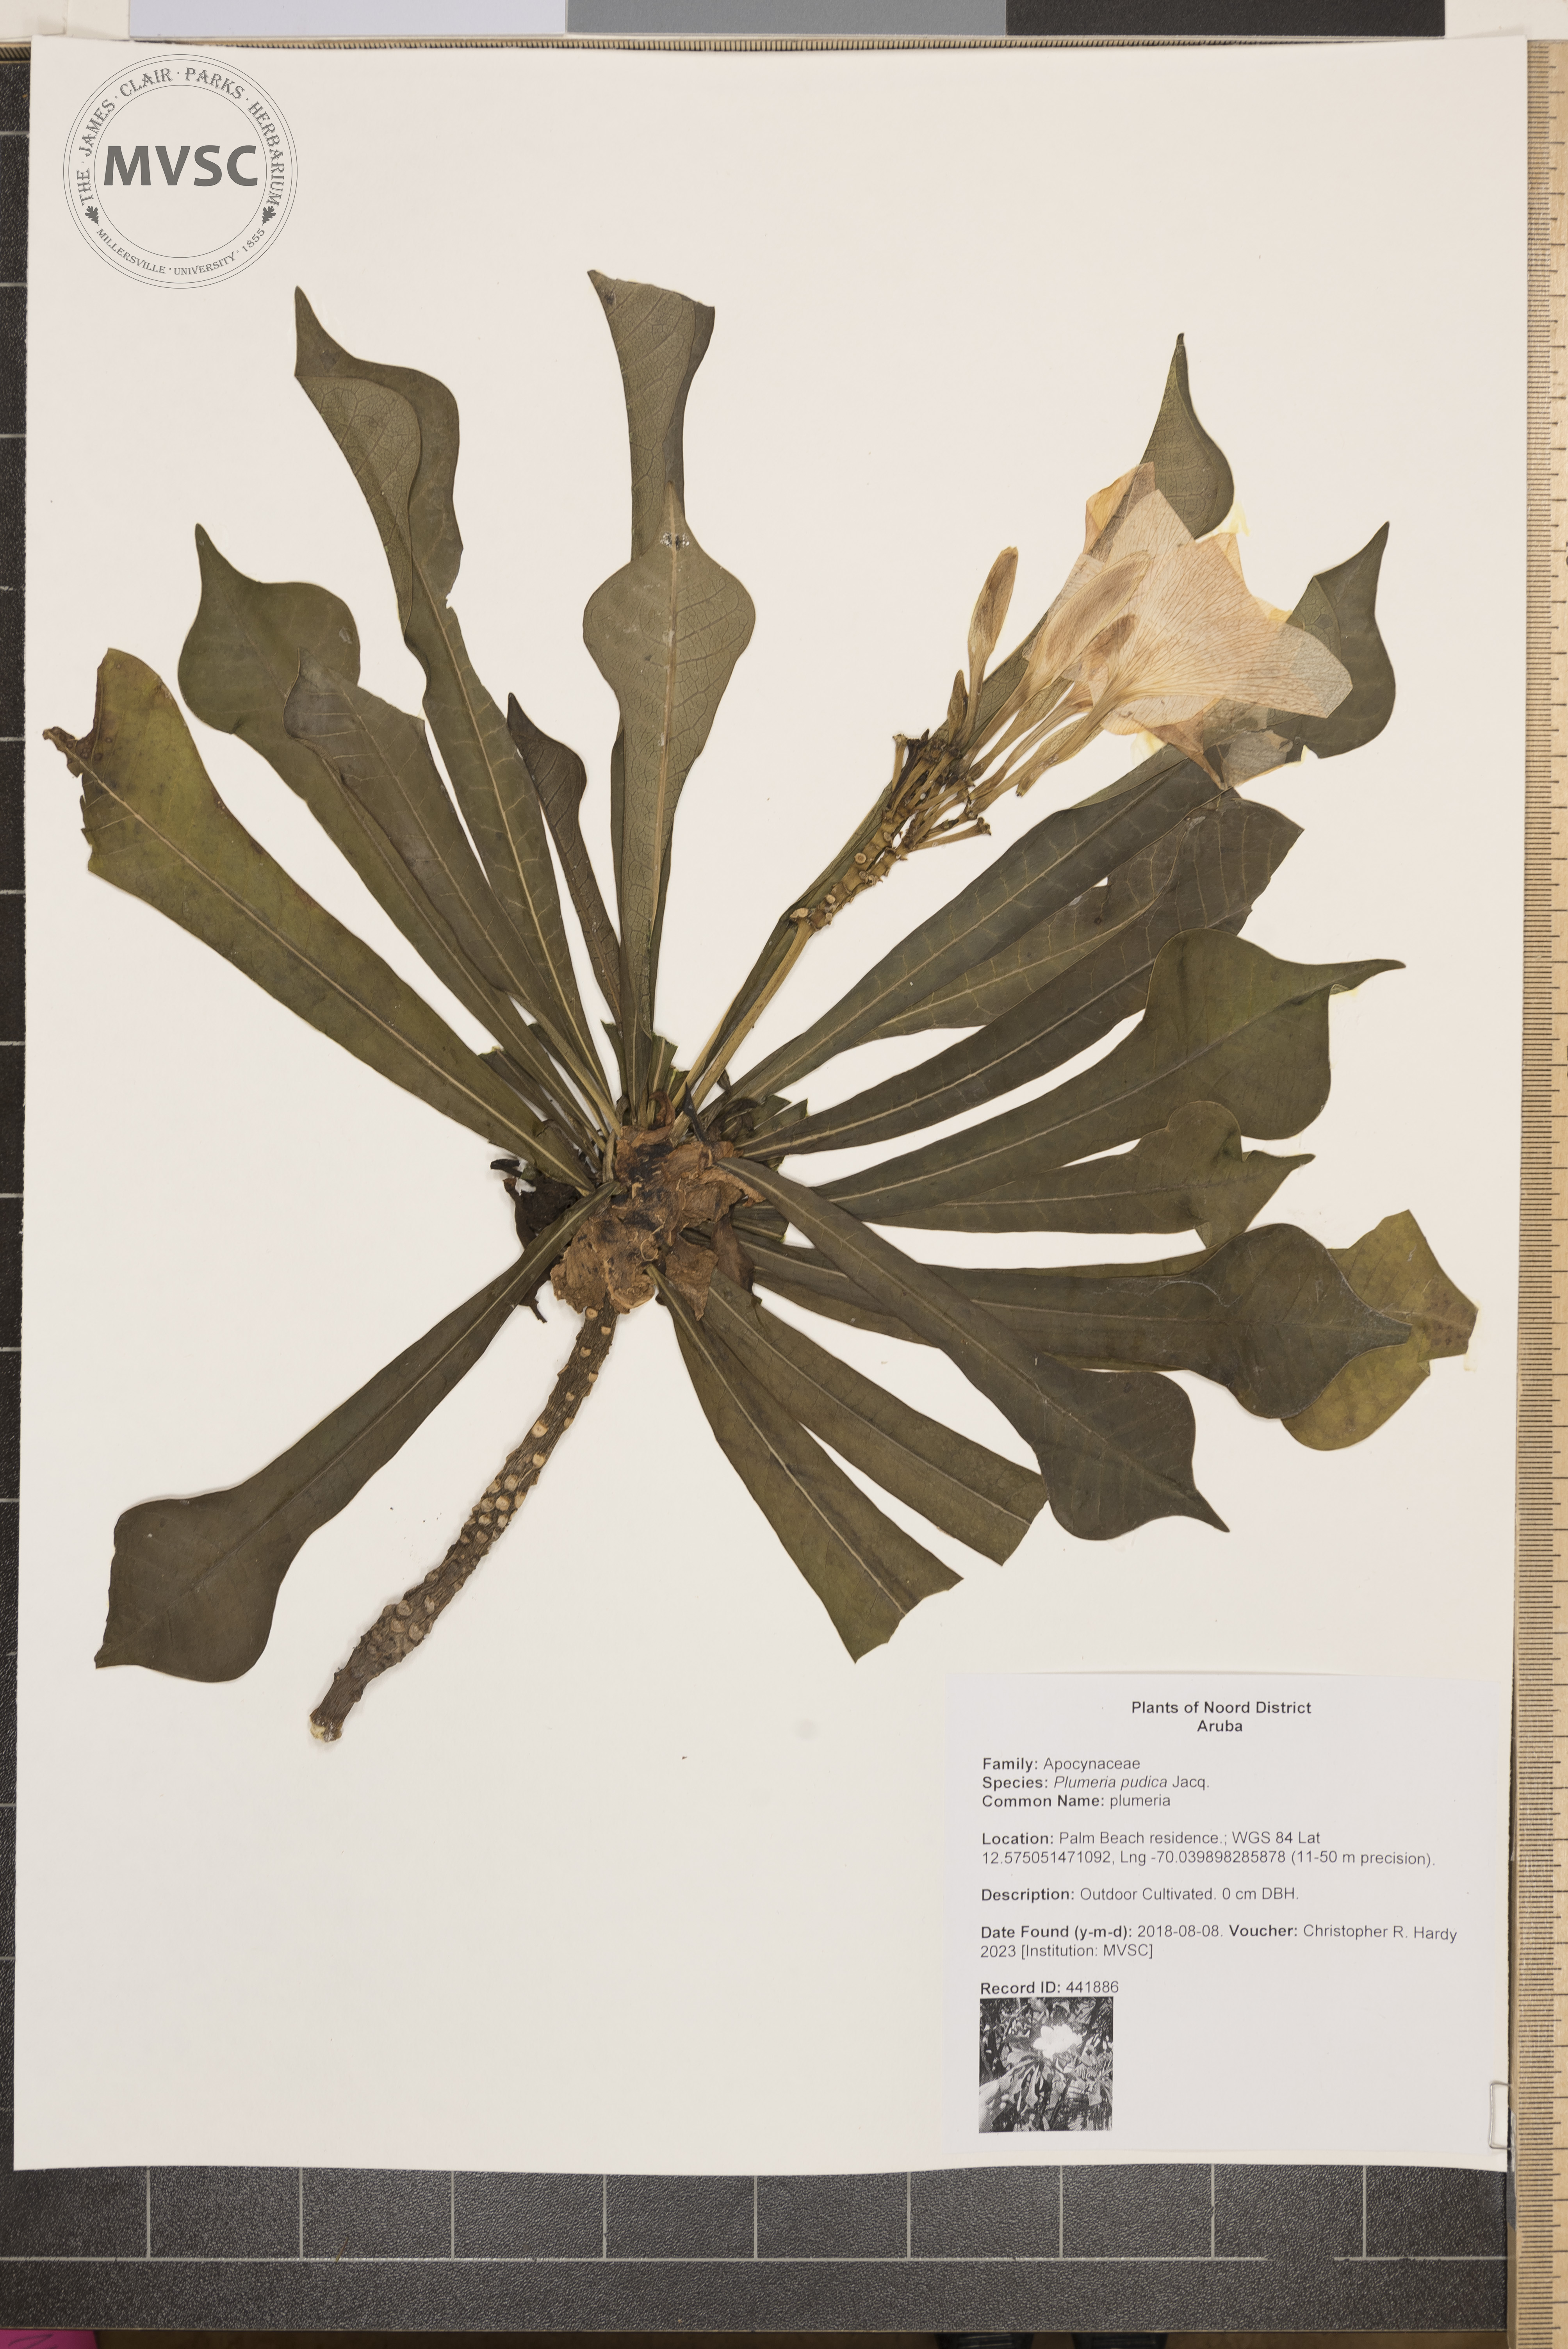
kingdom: Plantae
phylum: Tracheophyta
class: Magnoliopsida
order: Gentianales
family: Apocynaceae
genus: Plumeria
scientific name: Plumeria pudica
